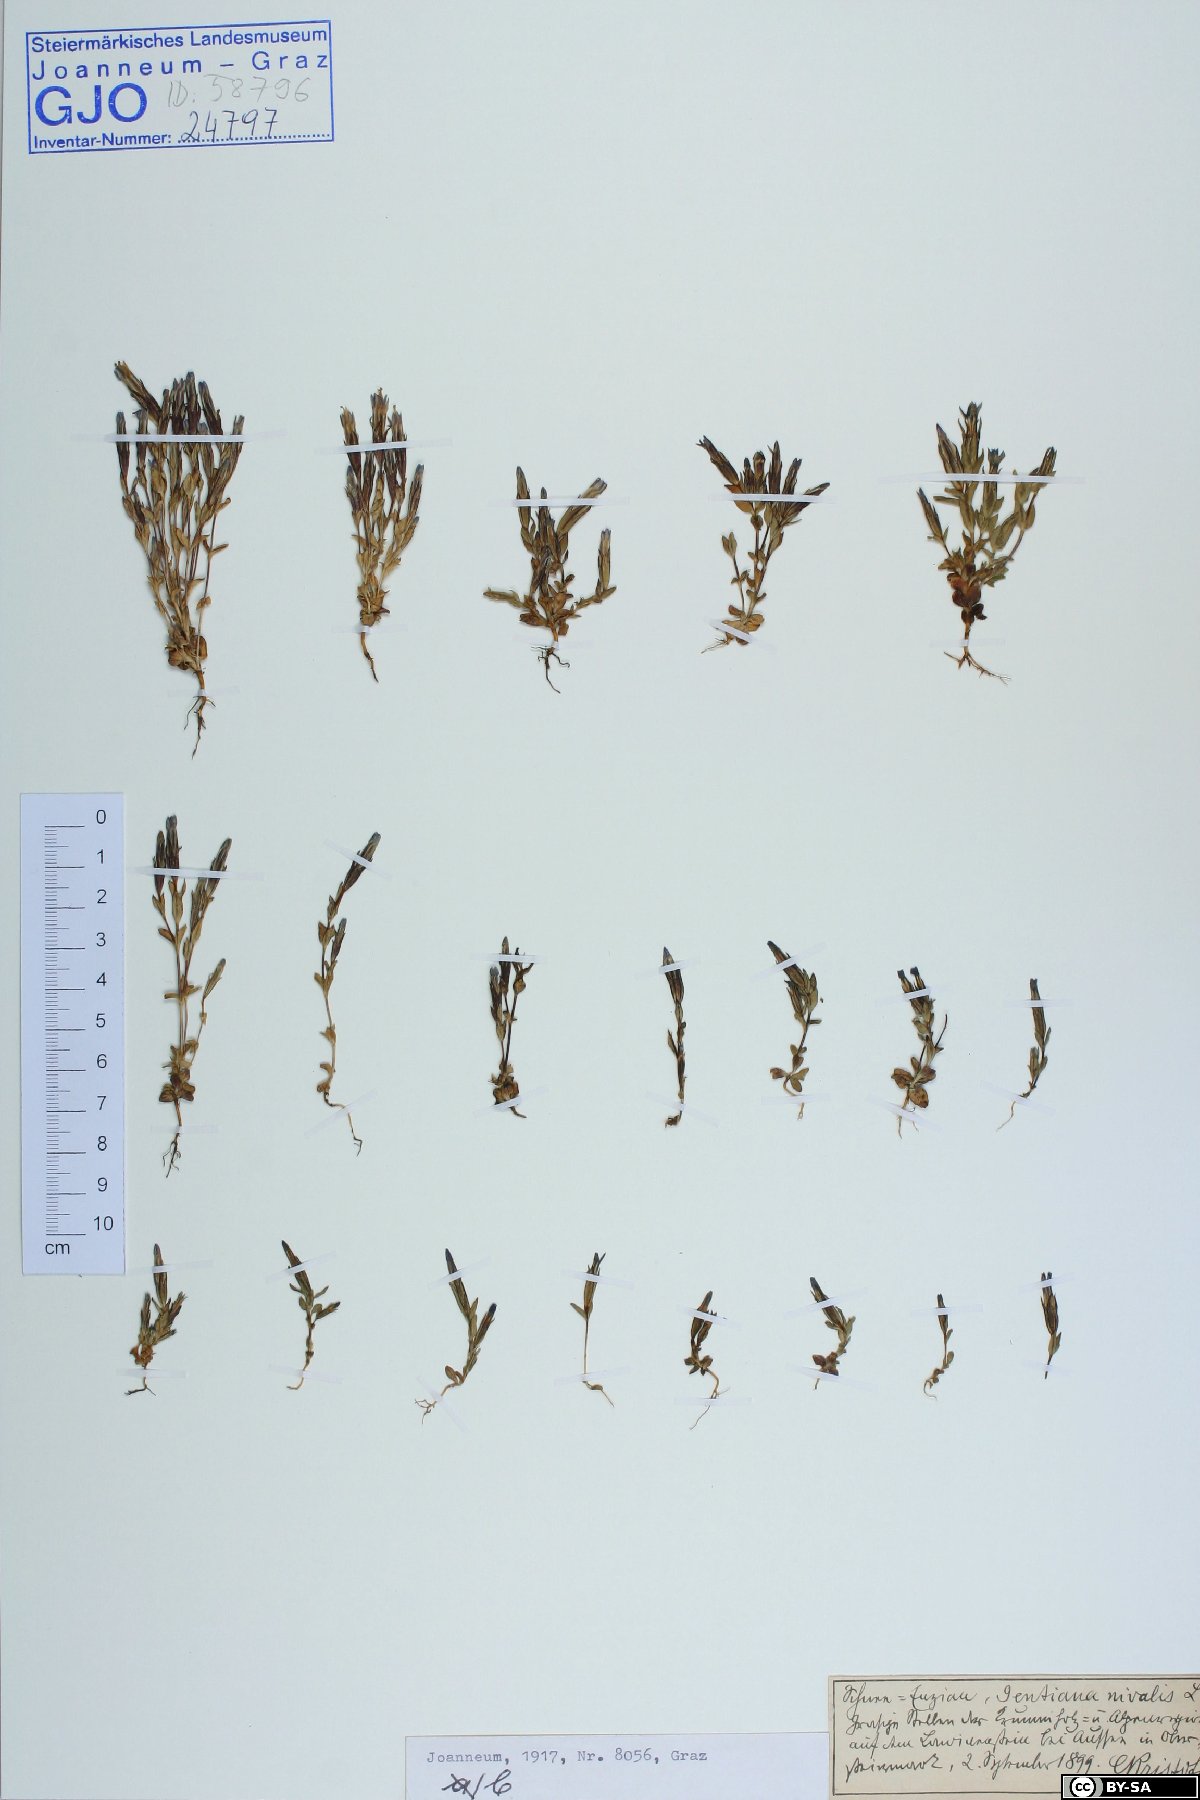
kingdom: Plantae
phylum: Tracheophyta
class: Magnoliopsida
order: Gentianales
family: Gentianaceae
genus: Gentiana
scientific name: Gentiana nivalis
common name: Alpine gentian
